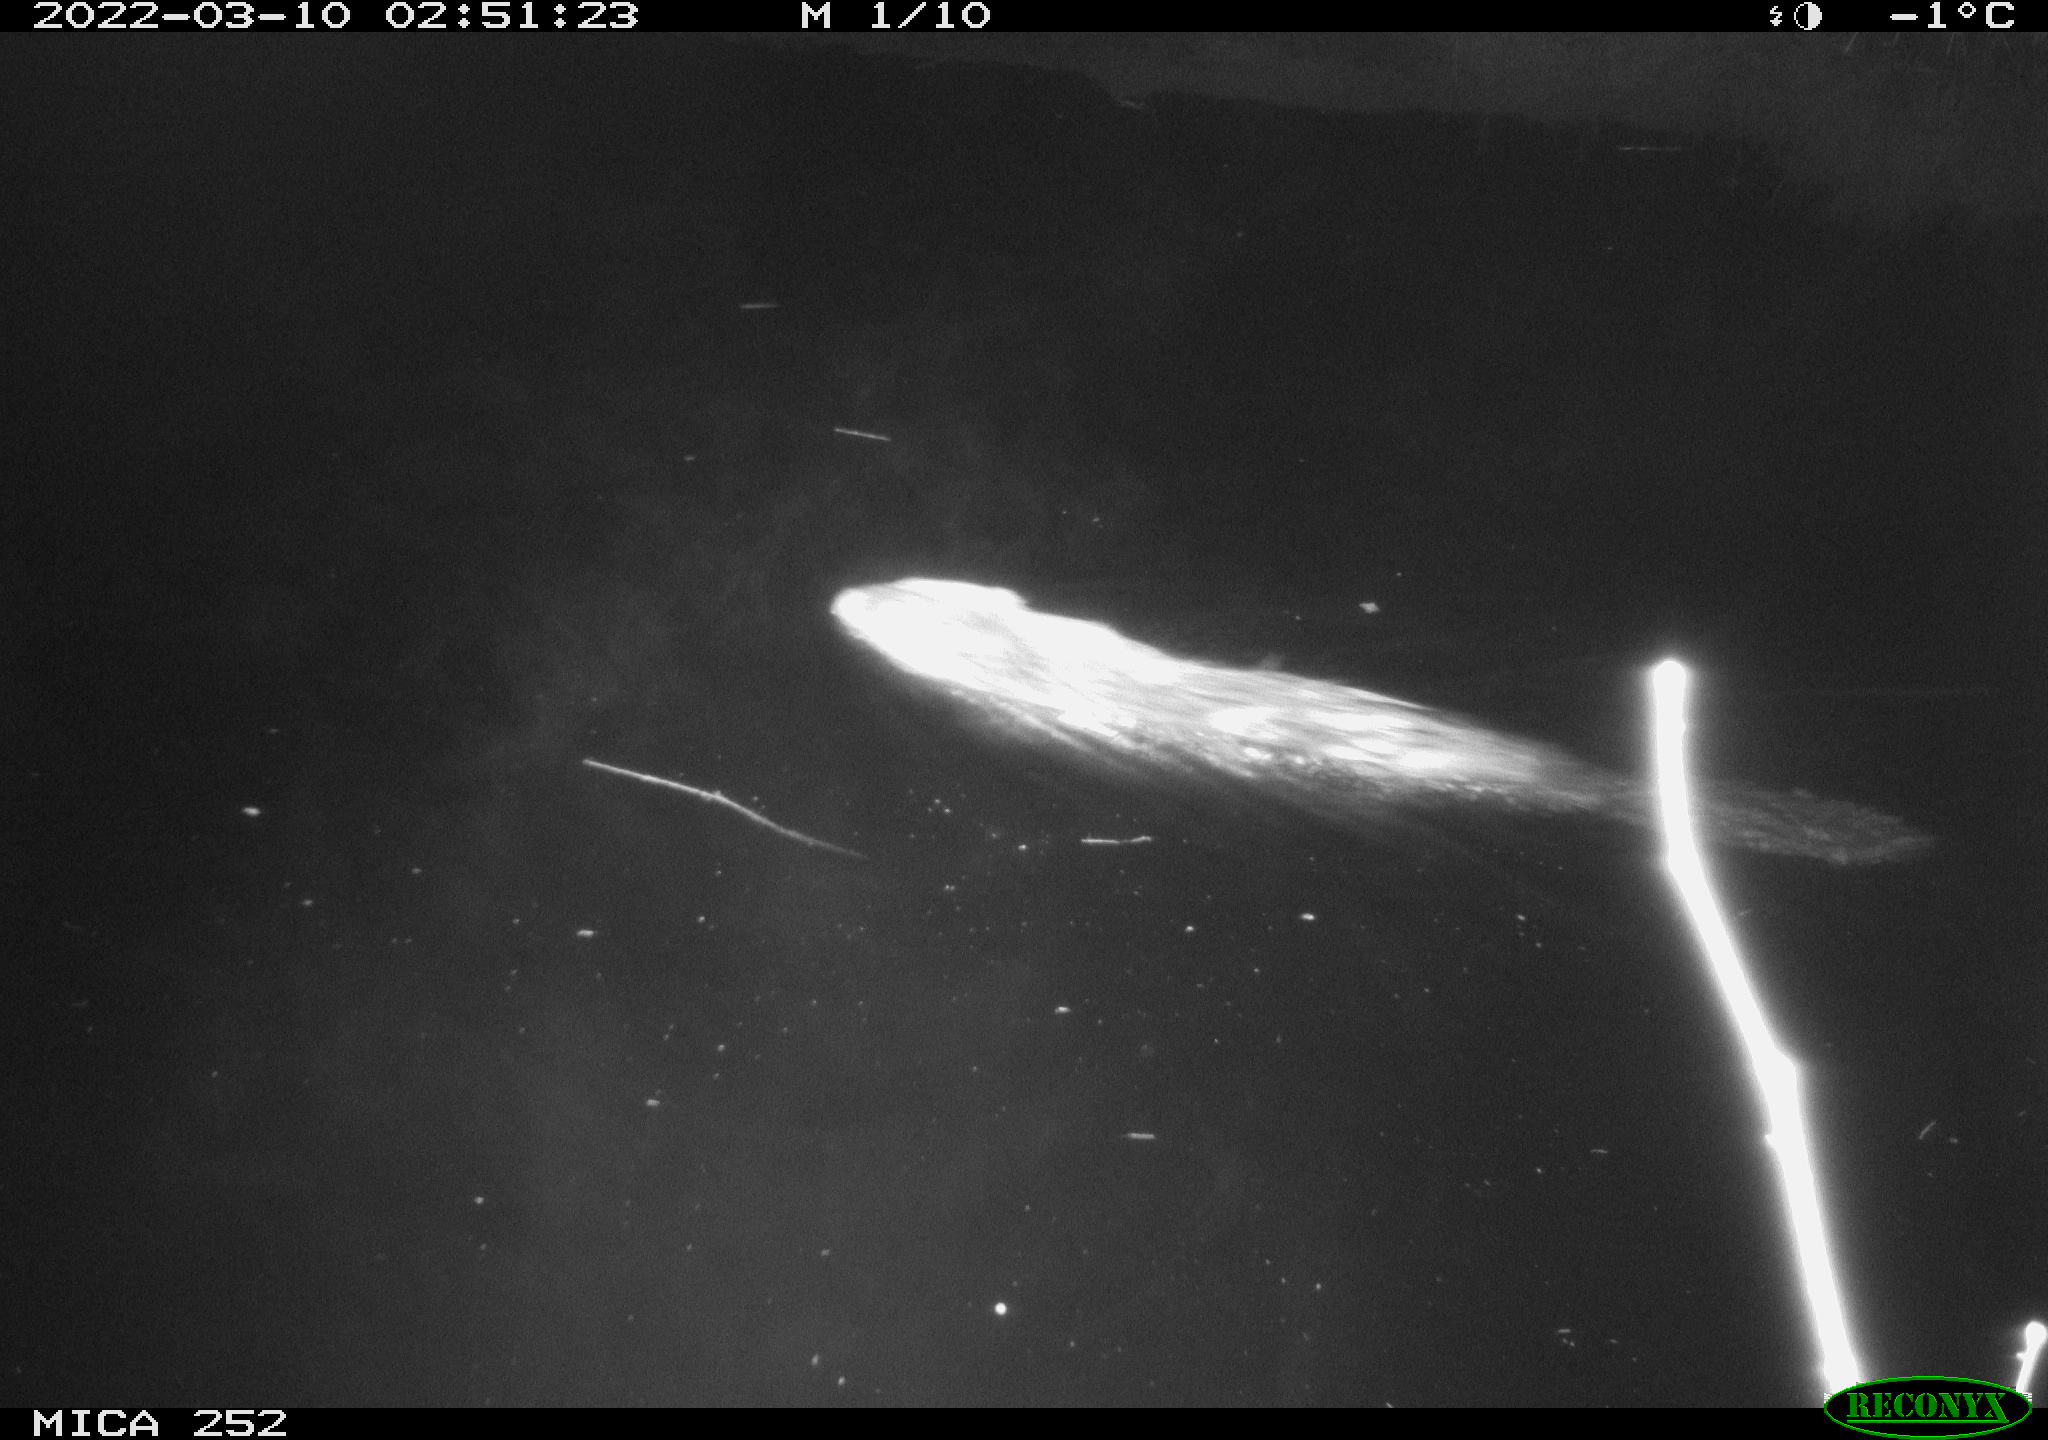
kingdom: Animalia
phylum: Chordata
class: Mammalia
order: Rodentia
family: Castoridae
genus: Castor
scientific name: Castor fiber
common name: Eurasian beaver
